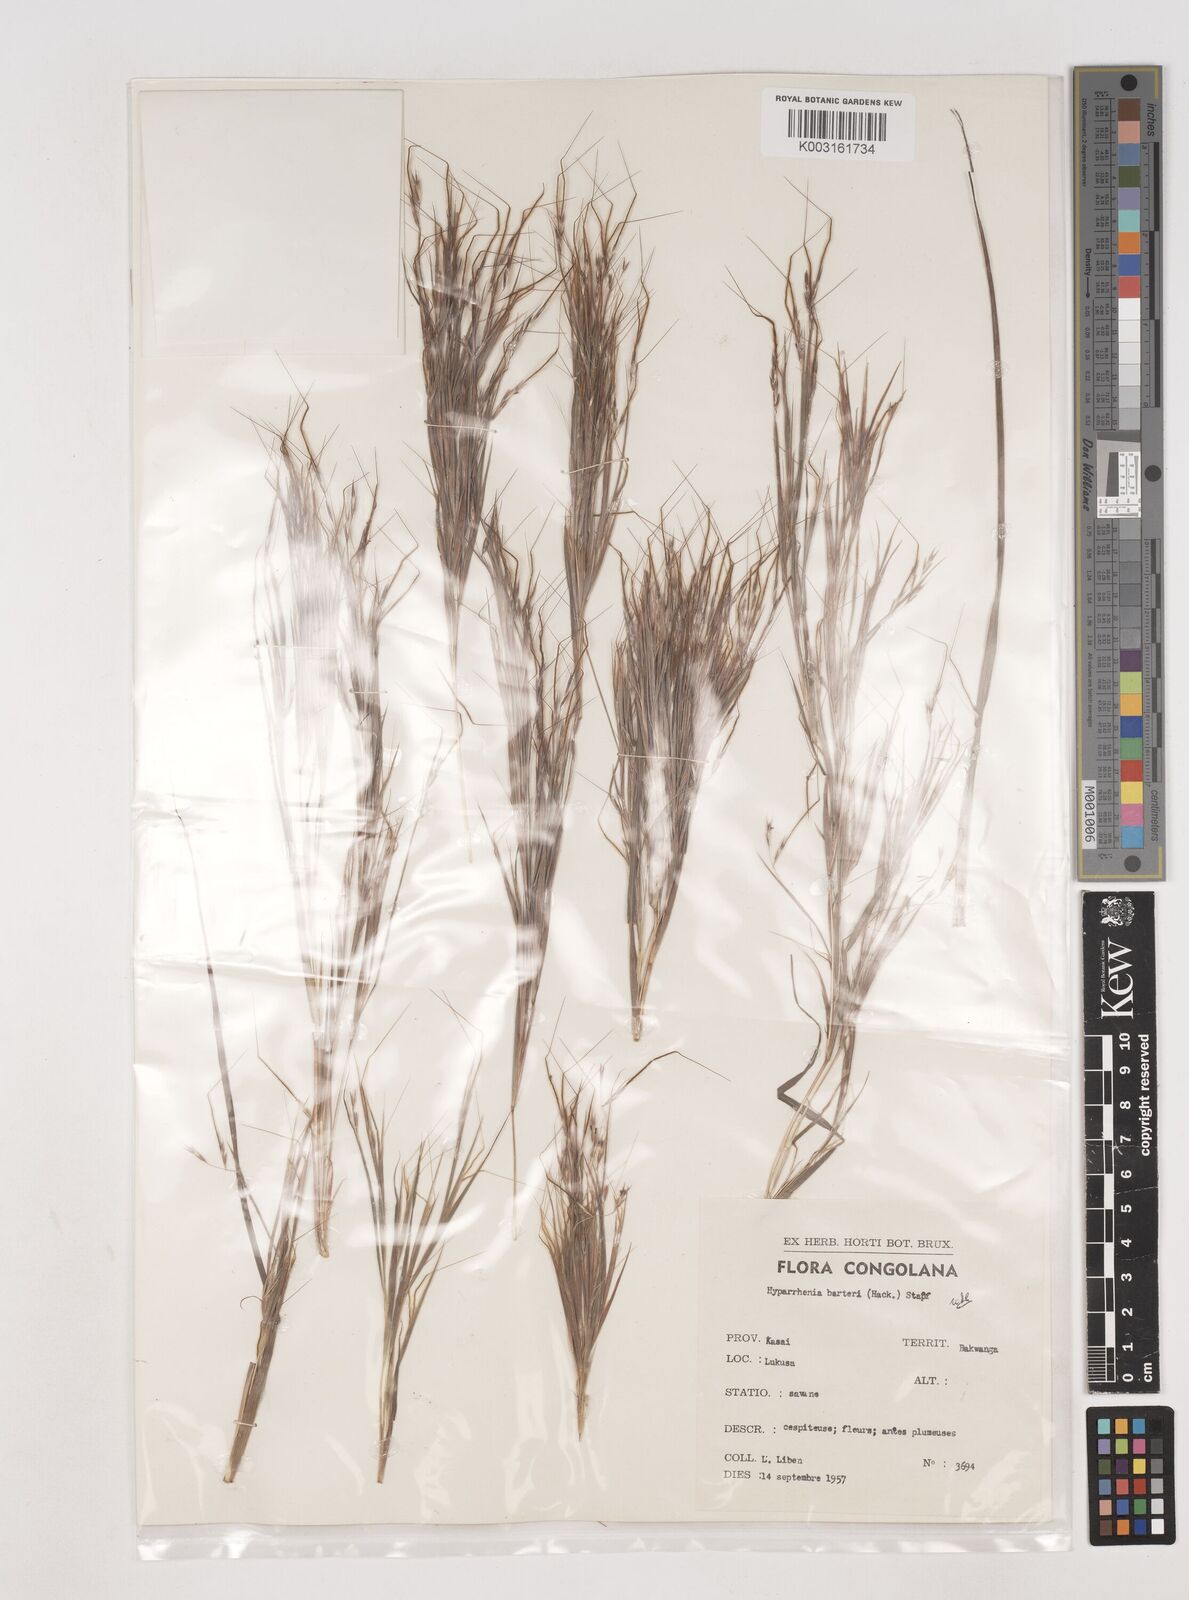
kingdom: Plantae
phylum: Tracheophyta
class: Liliopsida
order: Poales
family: Poaceae
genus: Hyparrhenia
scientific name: Hyparrhenia barteri
